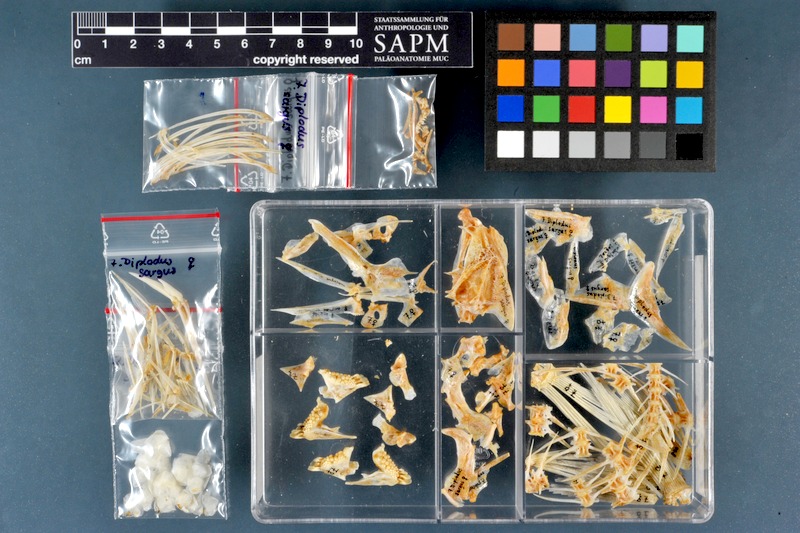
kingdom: Animalia
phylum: Chordata
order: Perciformes
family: Sparidae
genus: Diplodus
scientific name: Diplodus capensis
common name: Blacktail
